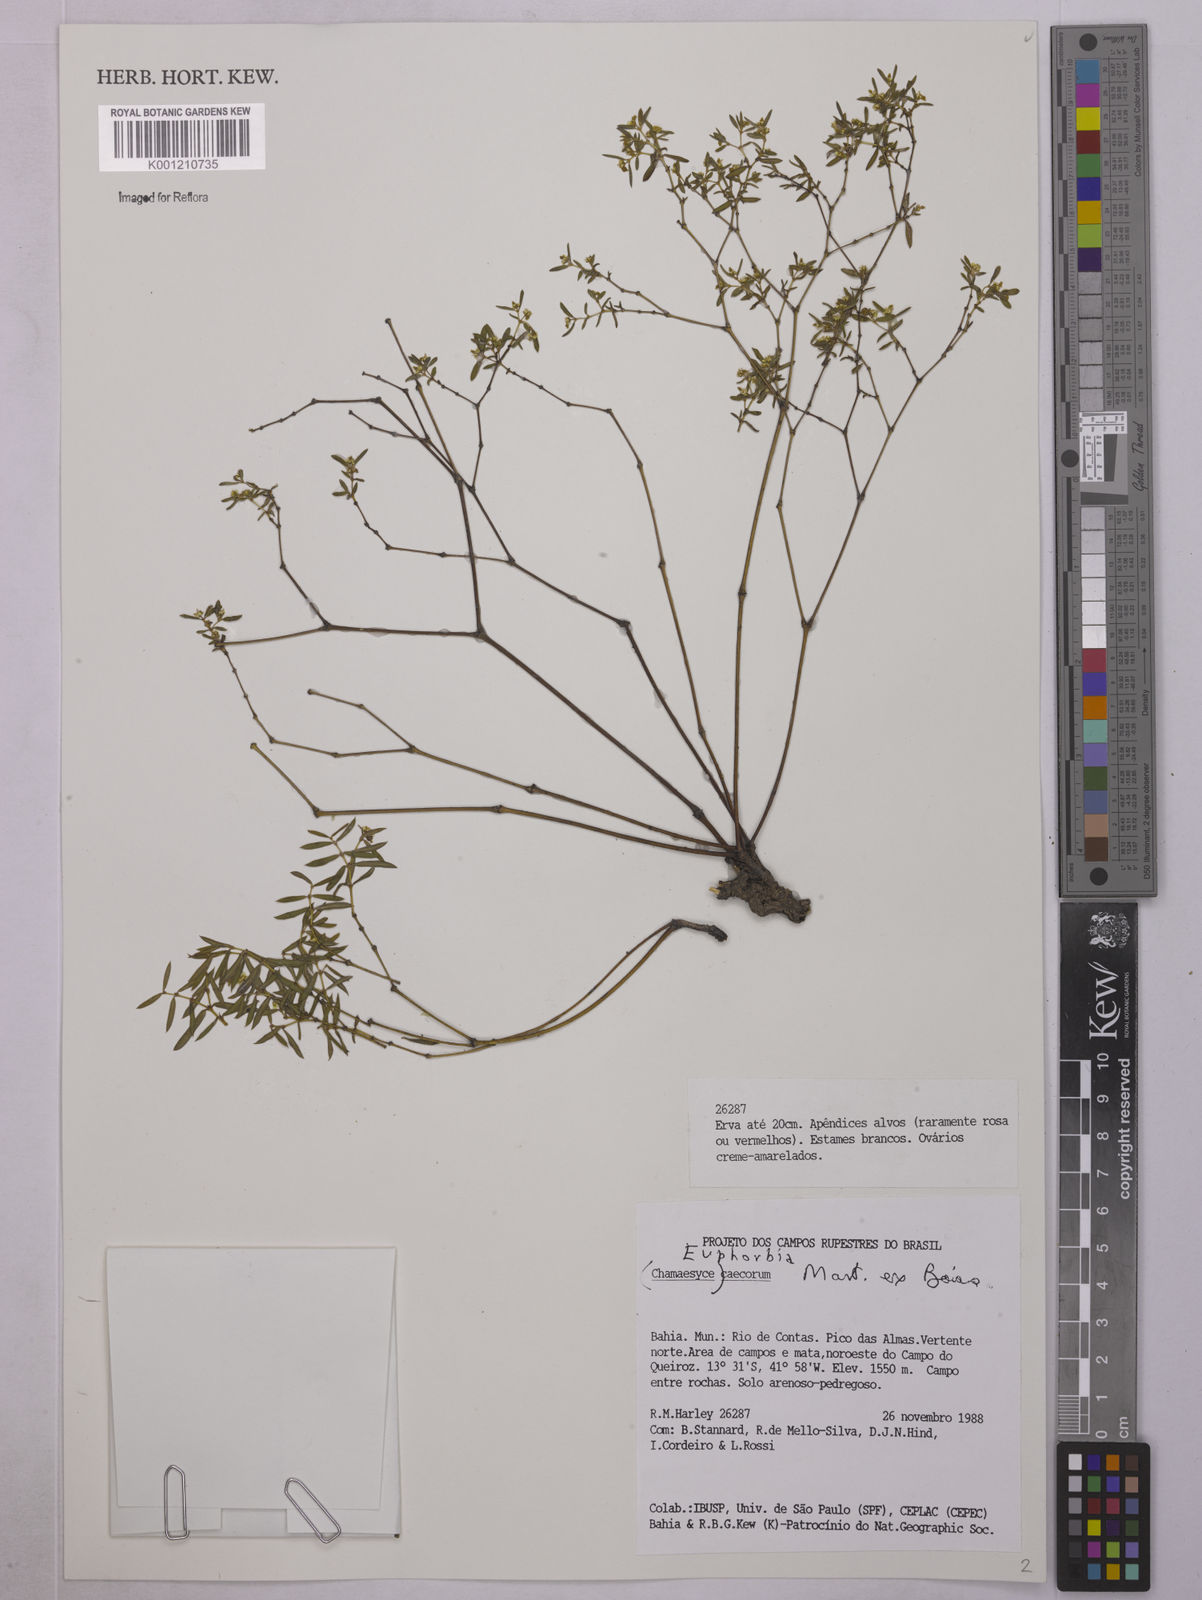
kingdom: Plantae
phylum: Tracheophyta
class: Magnoliopsida
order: Malpighiales
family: Euphorbiaceae
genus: Euphorbia
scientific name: Euphorbia potentilloides
